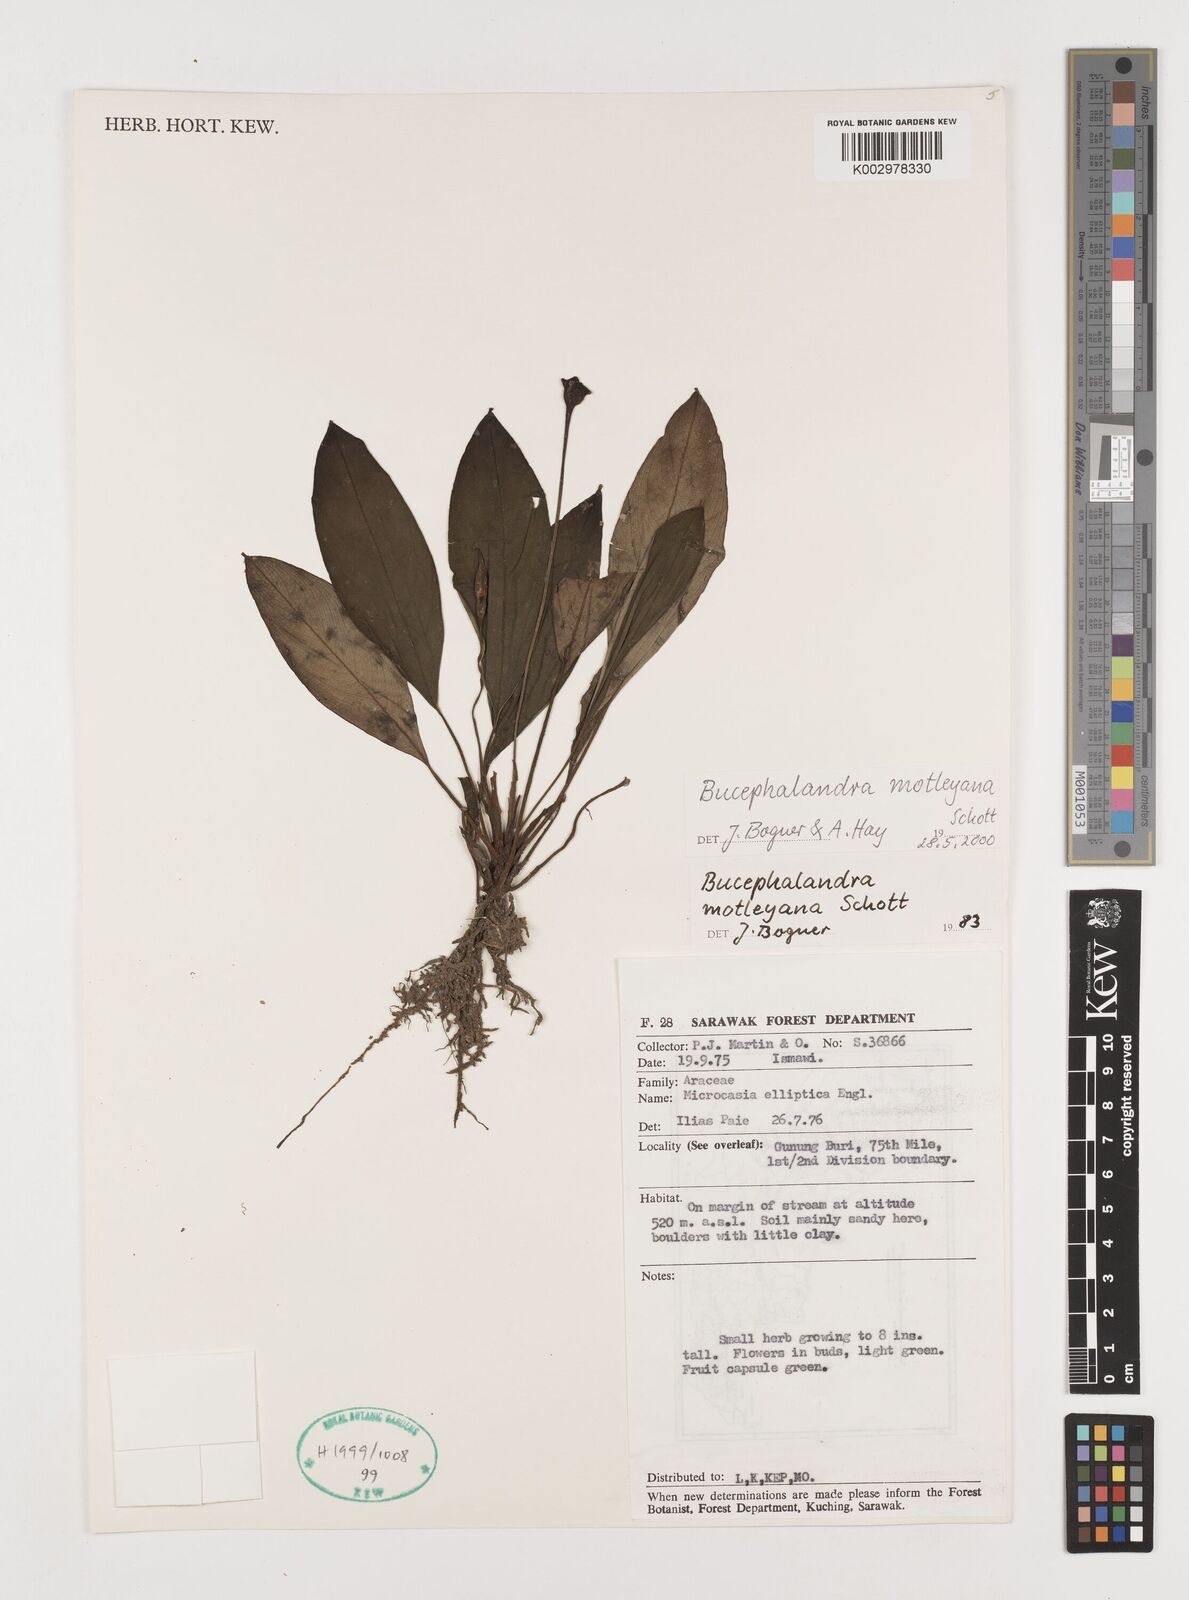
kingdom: Plantae
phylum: Tracheophyta
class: Liliopsida
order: Alismatales
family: Araceae
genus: Bucephalandra
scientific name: Bucephalandra motleyana
